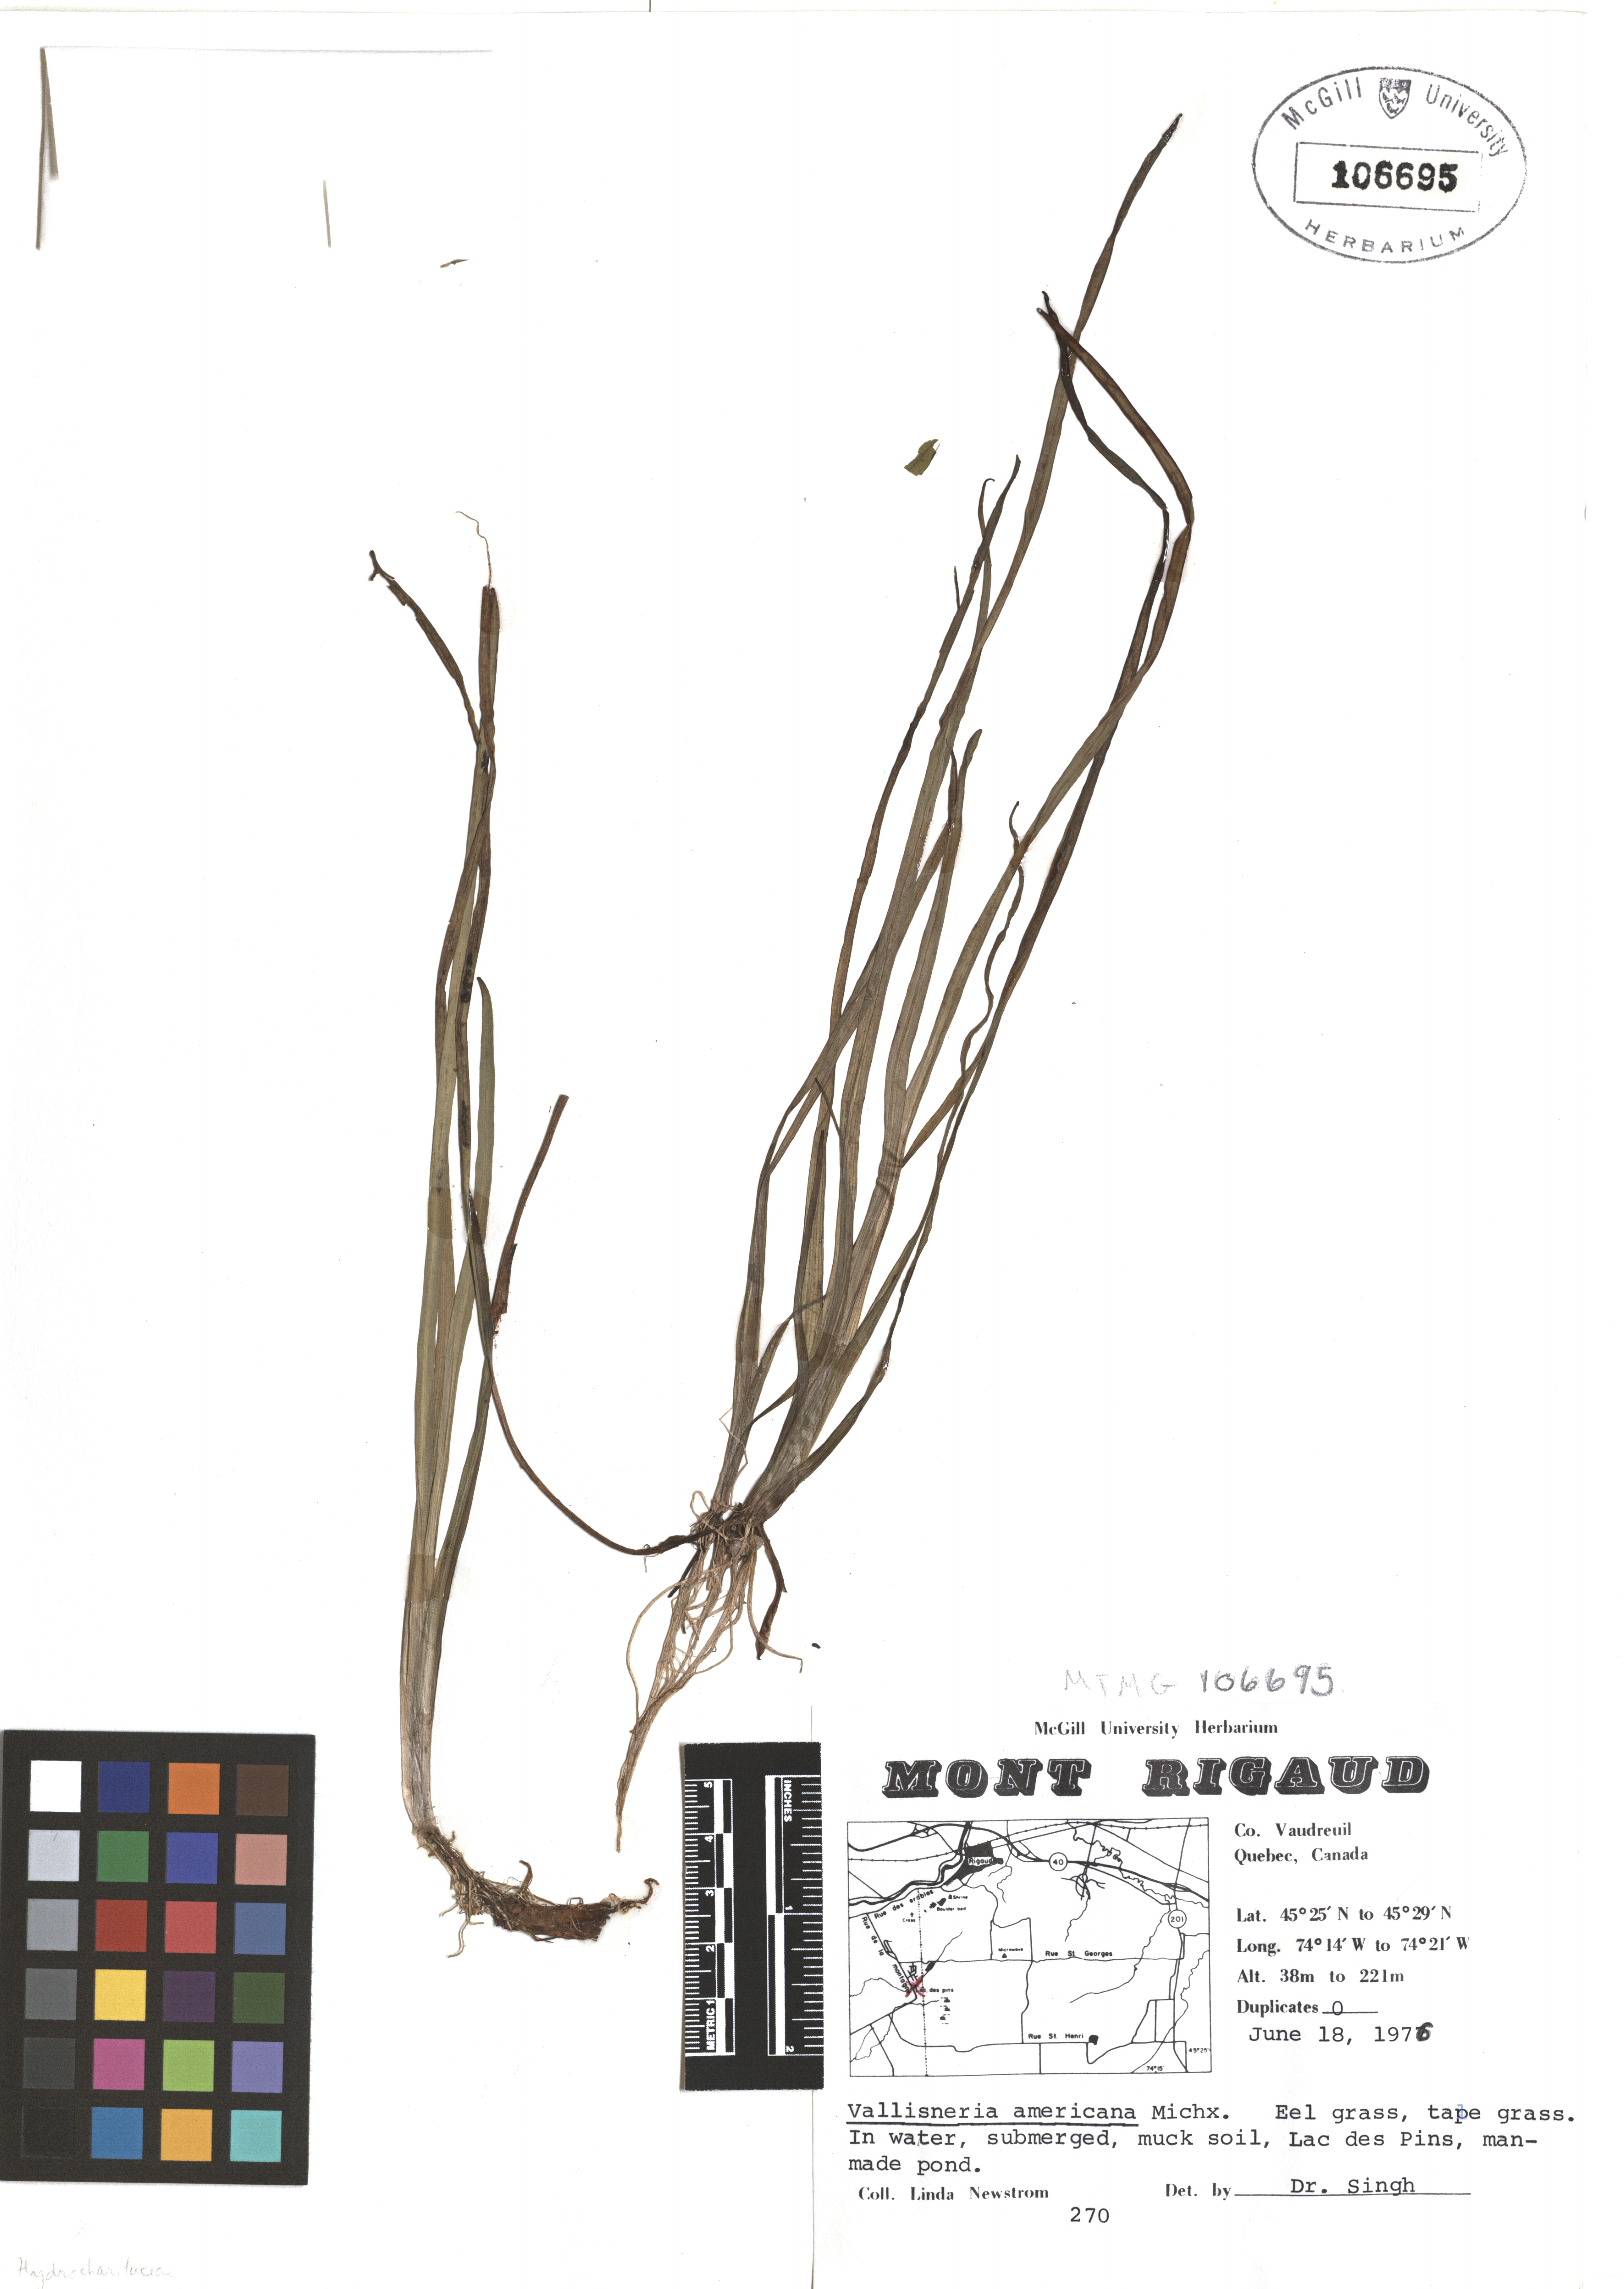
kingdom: Plantae
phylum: Tracheophyta
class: Liliopsida
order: Alismatales
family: Hydrocharitaceae
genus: Vallisneria
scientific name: Vallisneria americana
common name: American eelgrass
